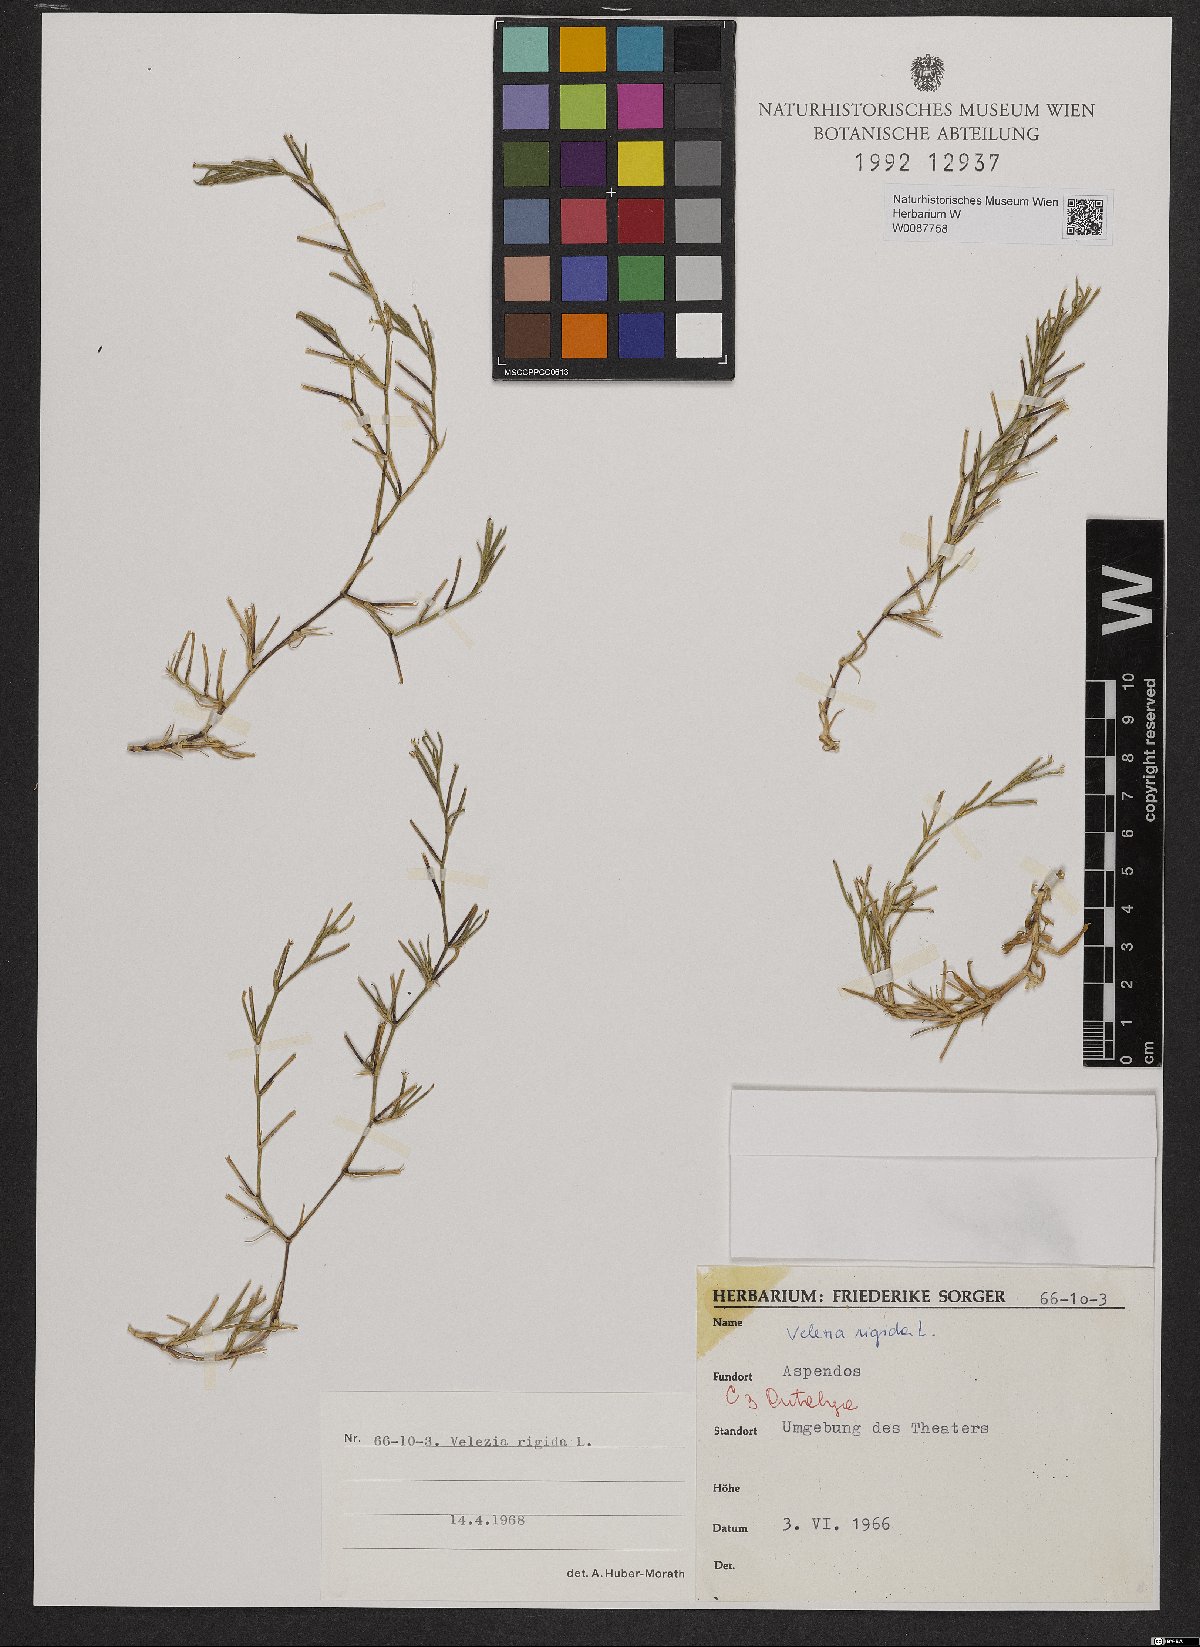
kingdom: Plantae
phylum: Tracheophyta
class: Magnoliopsida
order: Caryophyllales
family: Caryophyllaceae
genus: Dianthus
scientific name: Dianthus nudiflorus
